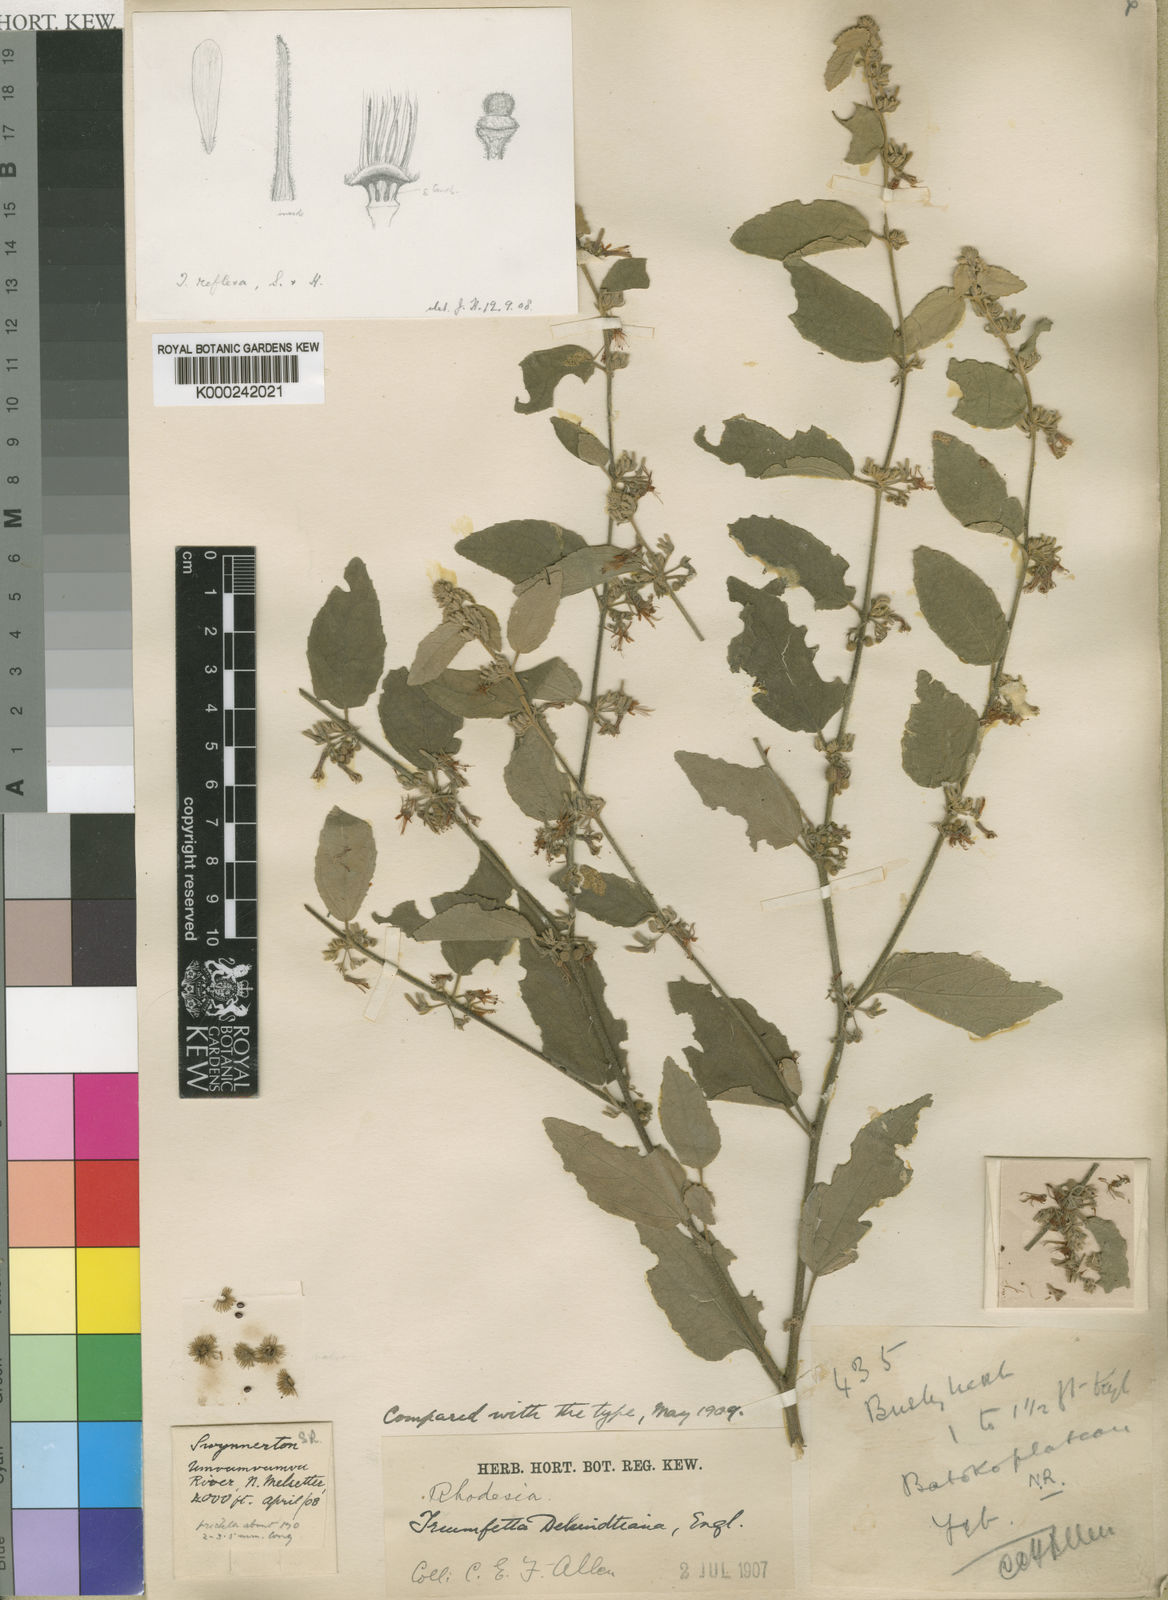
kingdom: Plantae
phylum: Tracheophyta
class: Magnoliopsida
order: Malvales
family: Malvaceae
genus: Triumfetta
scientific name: Triumfetta dekindtiana
